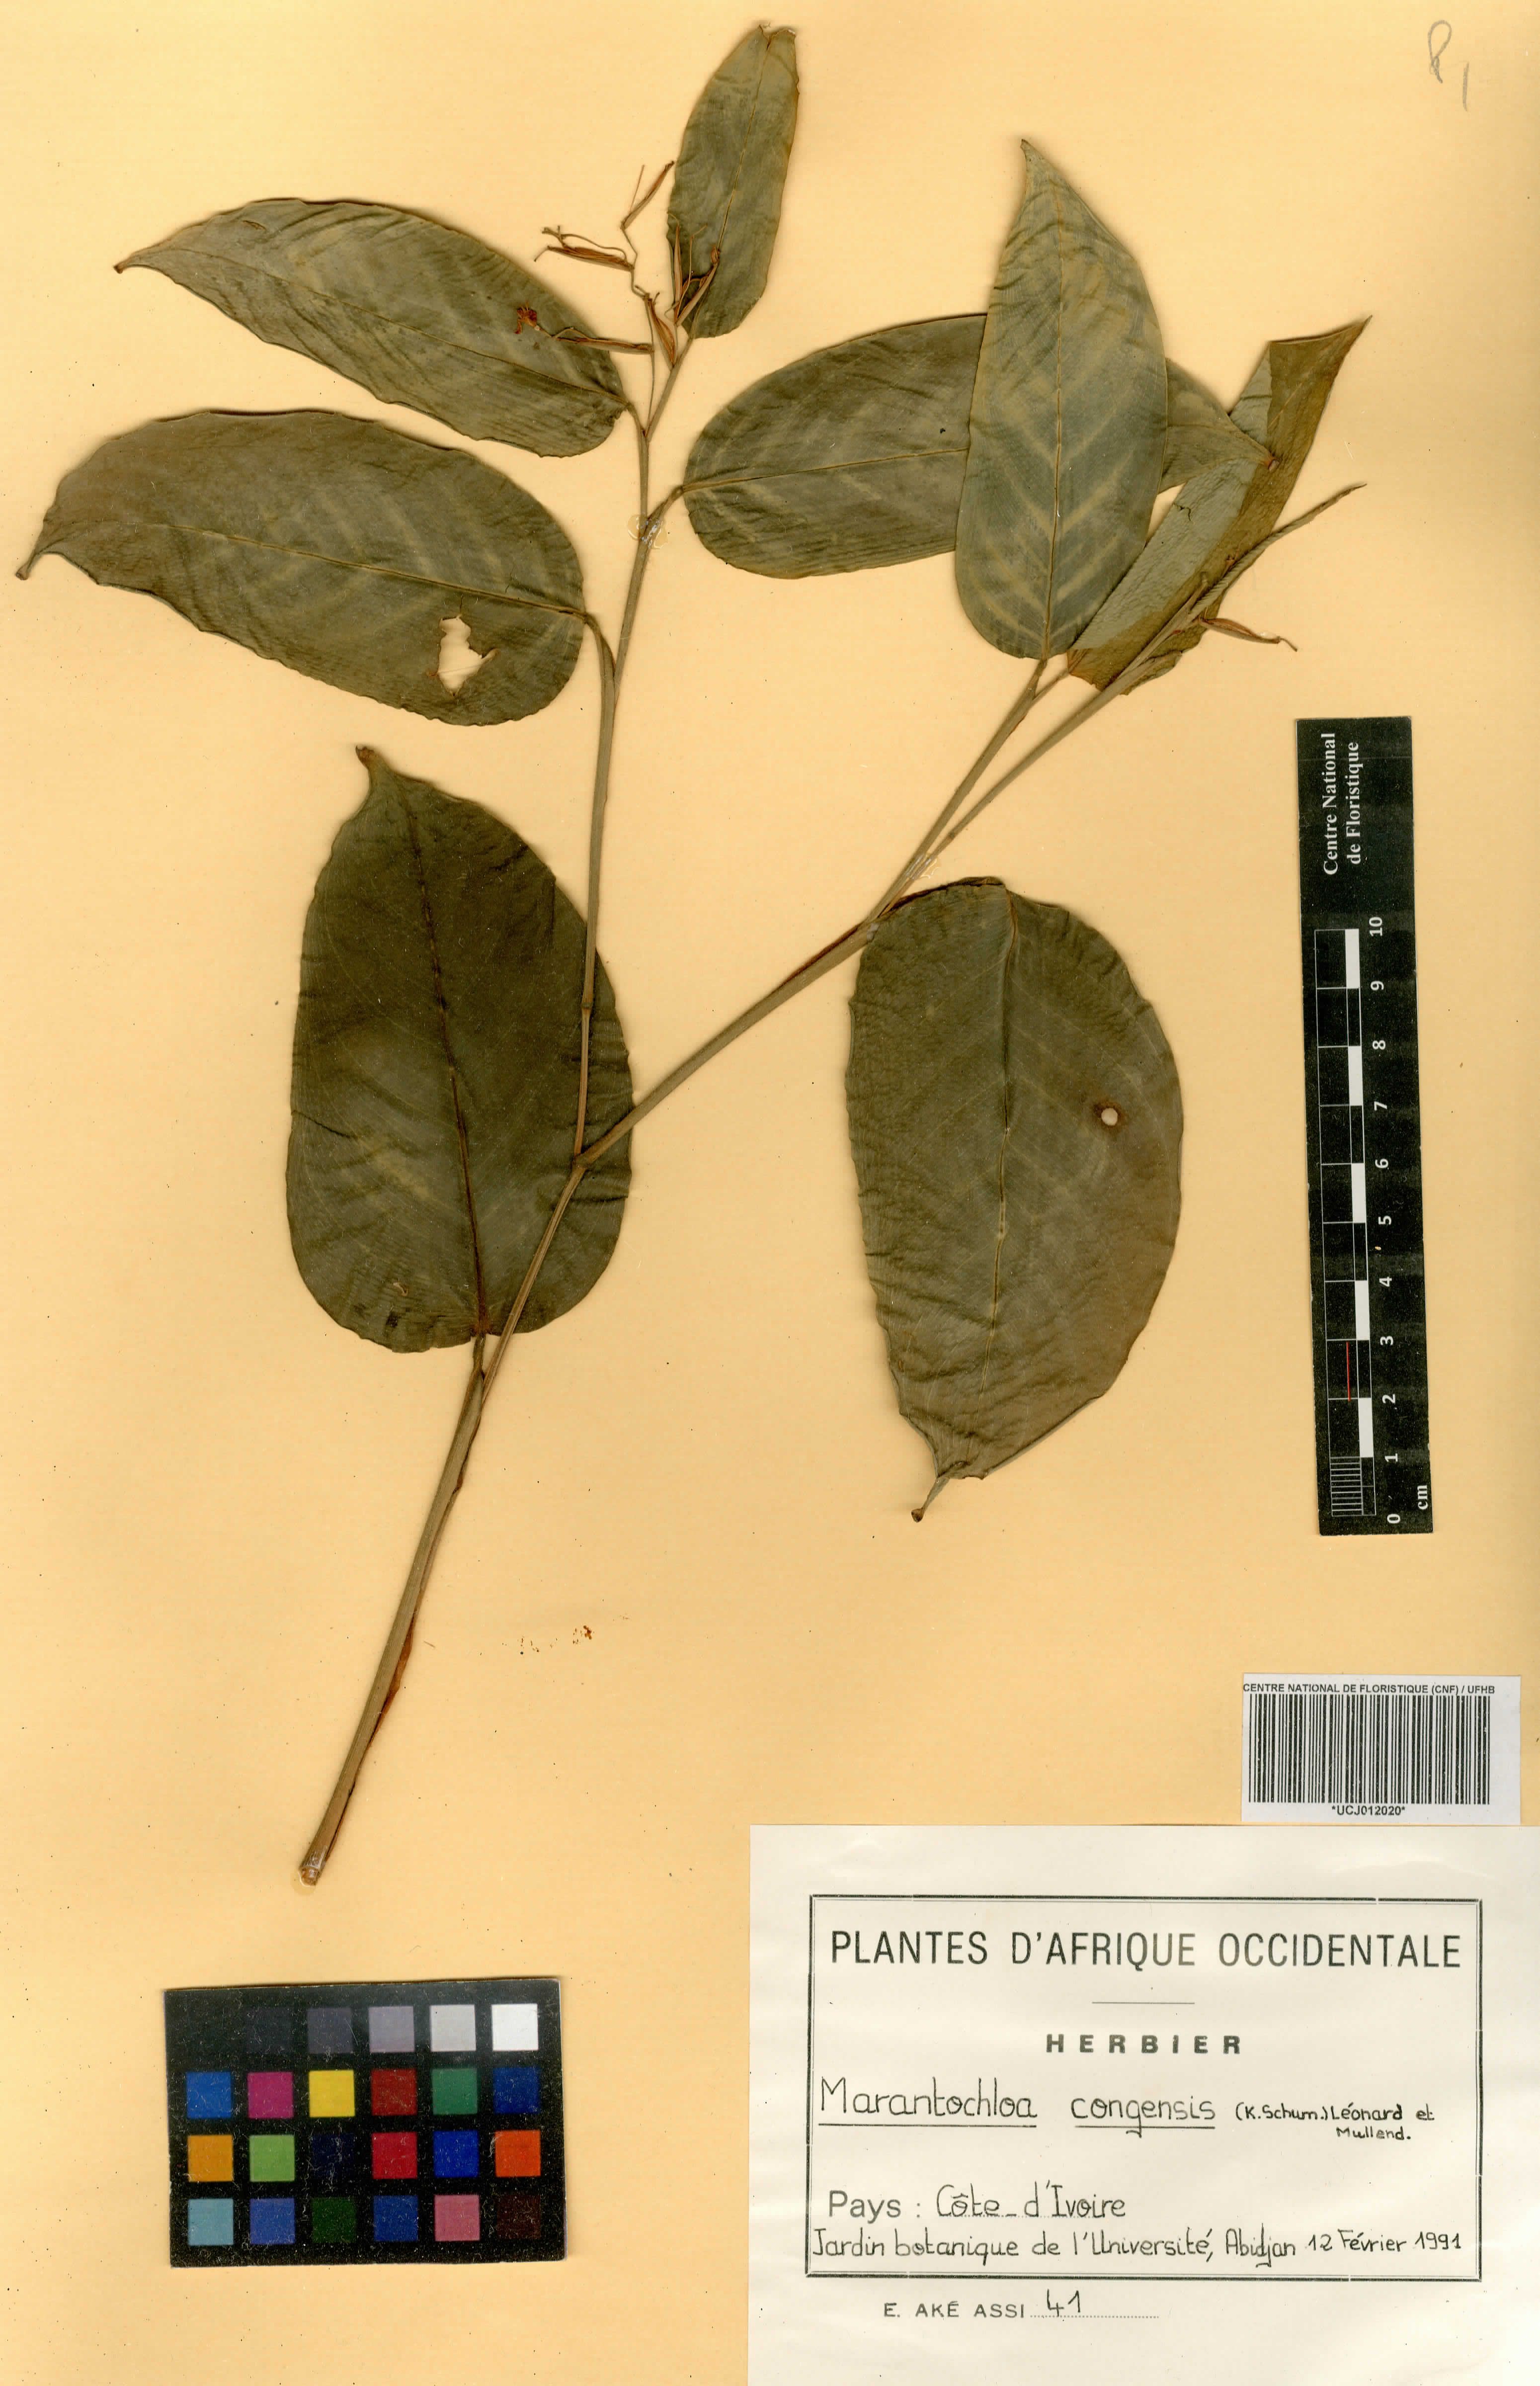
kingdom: Plantae
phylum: Tracheophyta
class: Liliopsida
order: Zingiberales
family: Marantaceae
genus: Marantochloa
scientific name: Marantochloa congensis
